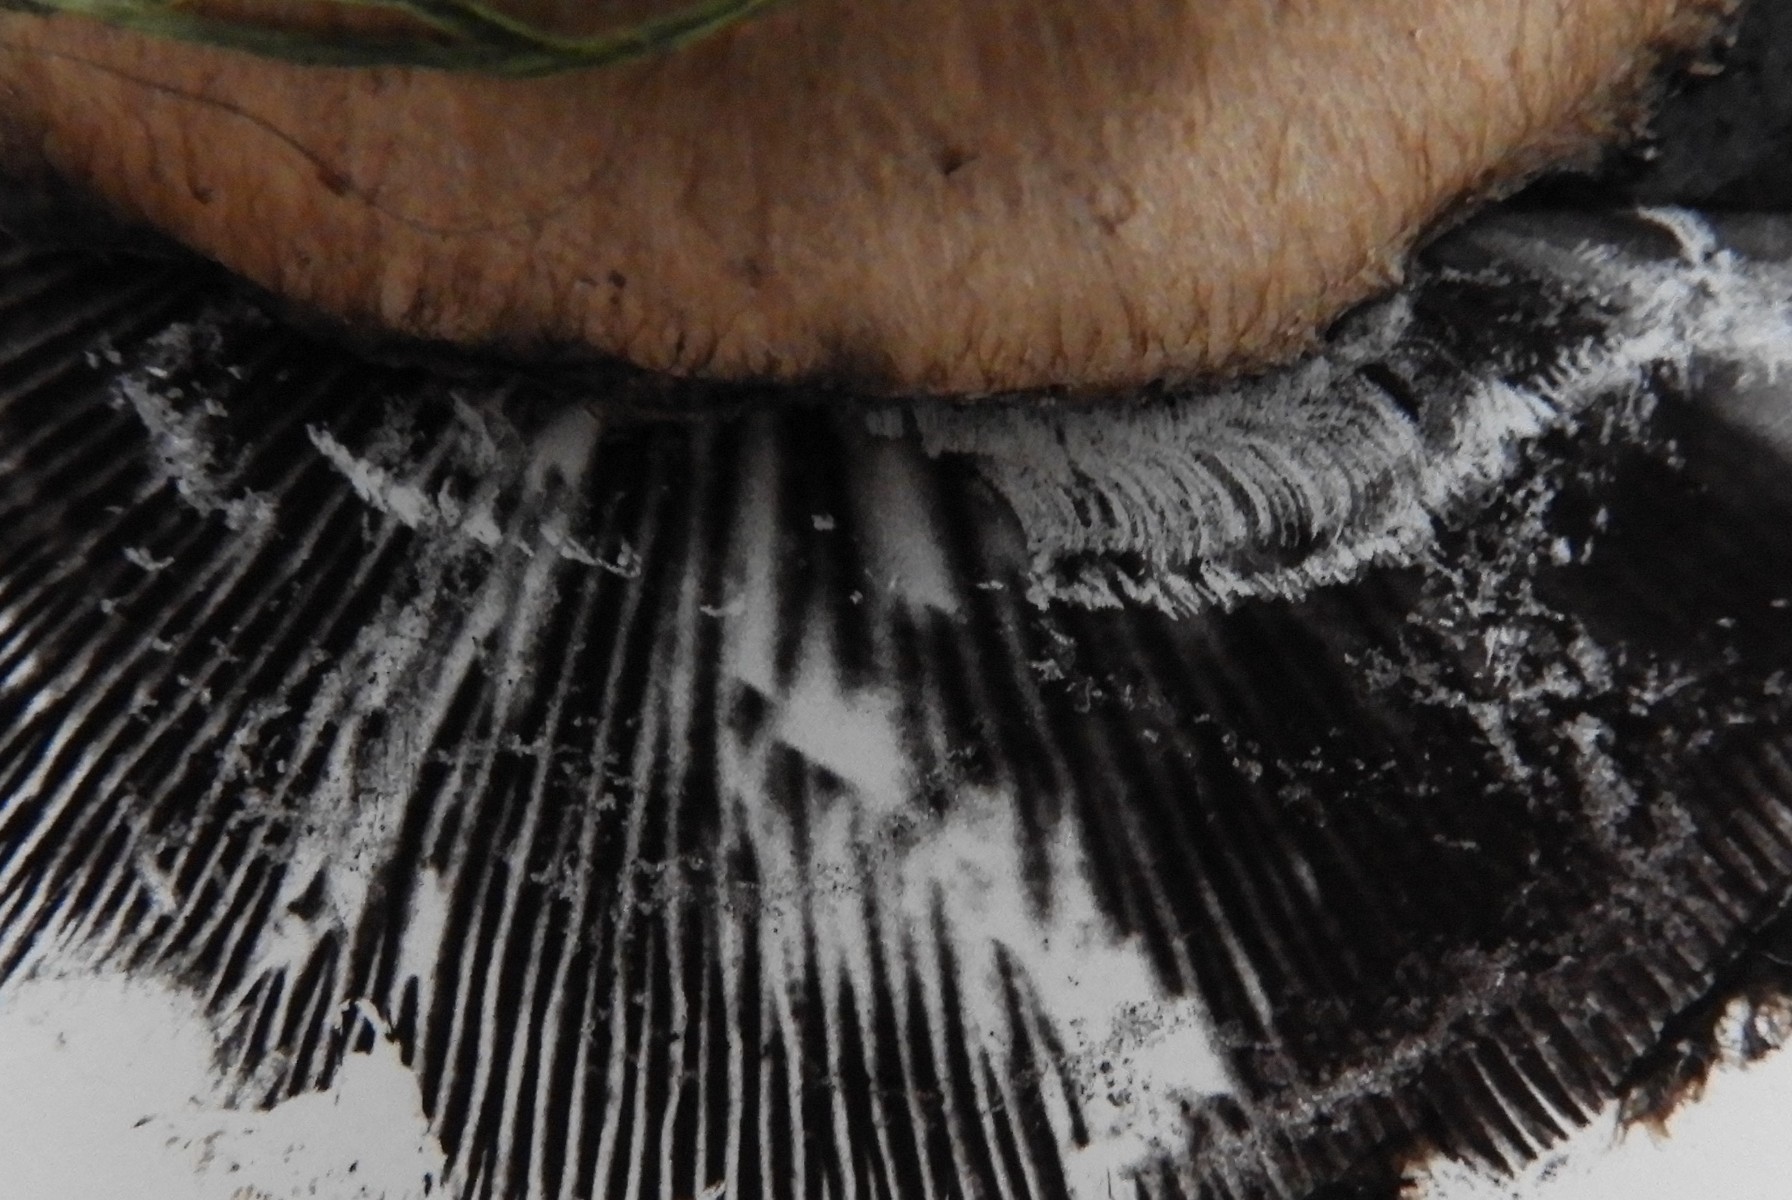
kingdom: Fungi
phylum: Basidiomycota
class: Agaricomycetes
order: Agaricales
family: Psathyrellaceae
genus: Lacrymaria
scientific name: Lacrymaria lacrymabunda
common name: grædende mørkhat
